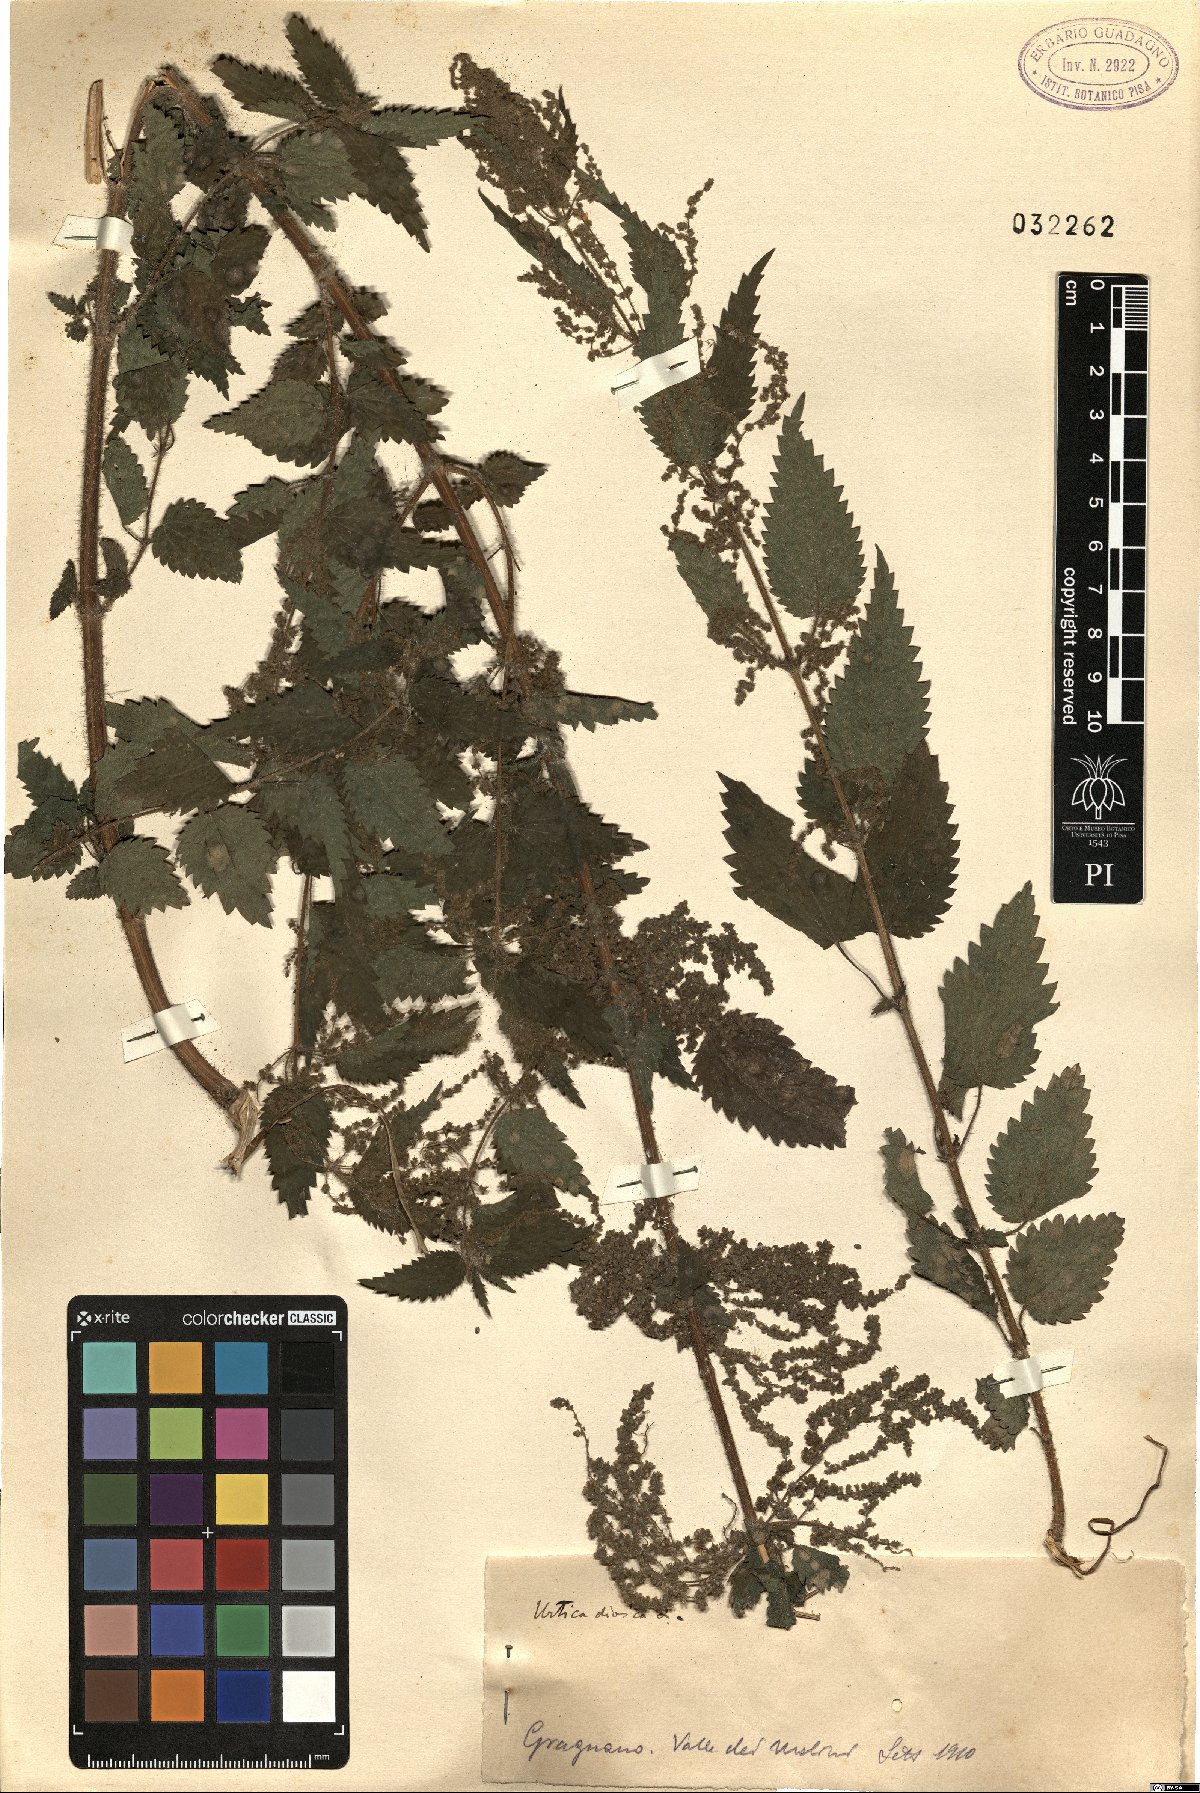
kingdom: Plantae
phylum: Tracheophyta
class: Magnoliopsida
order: Rosales
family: Urticaceae
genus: Urtica
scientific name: Urtica dioica
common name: Common nettle
